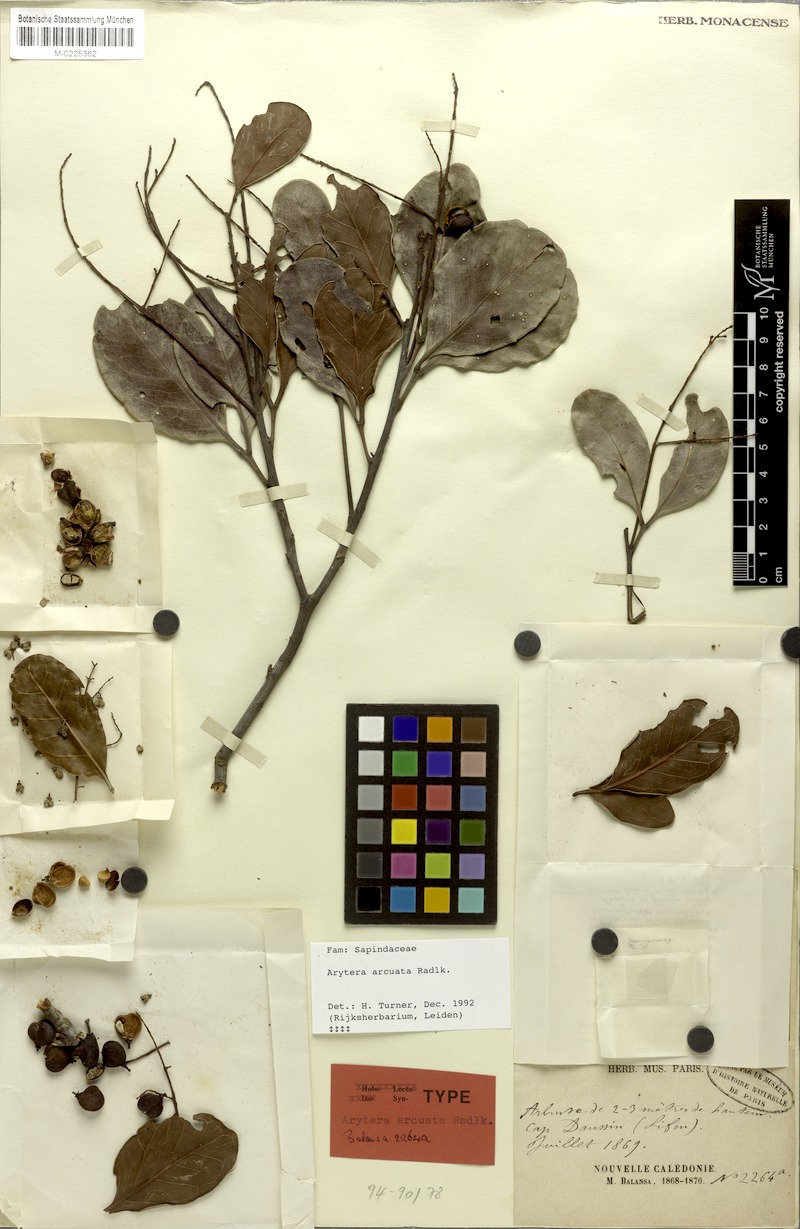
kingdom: Plantae
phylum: Tracheophyta
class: Magnoliopsida
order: Sapindales
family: Sapindaceae
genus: Lepidocupania
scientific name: Lepidocupania arcuata
